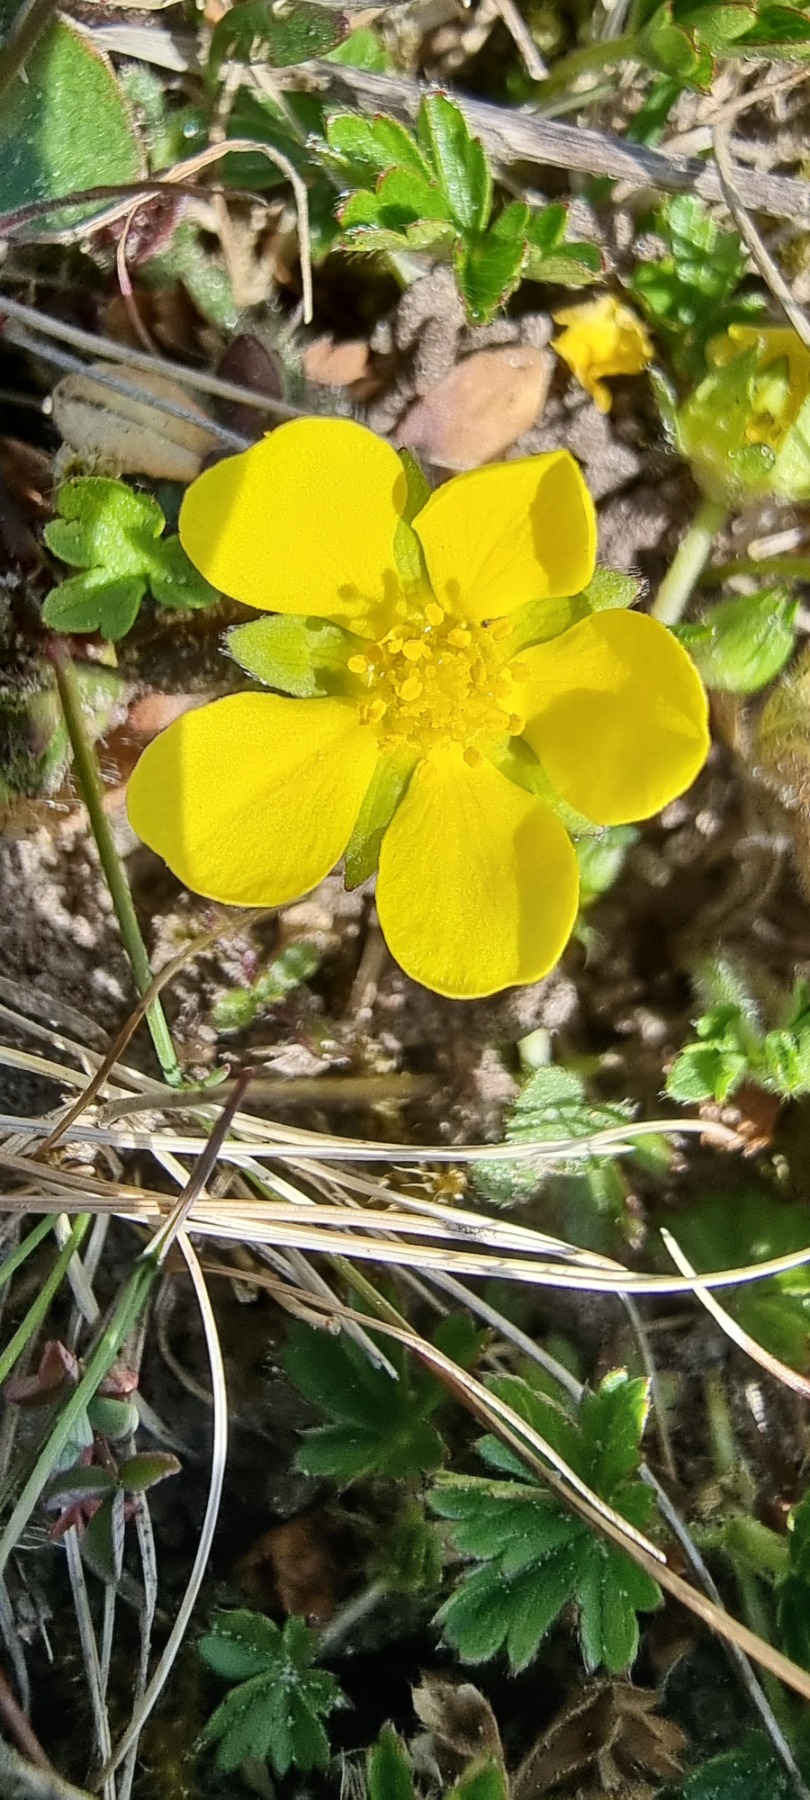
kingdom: Plantae
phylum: Tracheophyta
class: Magnoliopsida
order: Rosales
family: Rosaceae
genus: Potentilla
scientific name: Potentilla verna
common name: Vår-potentil
